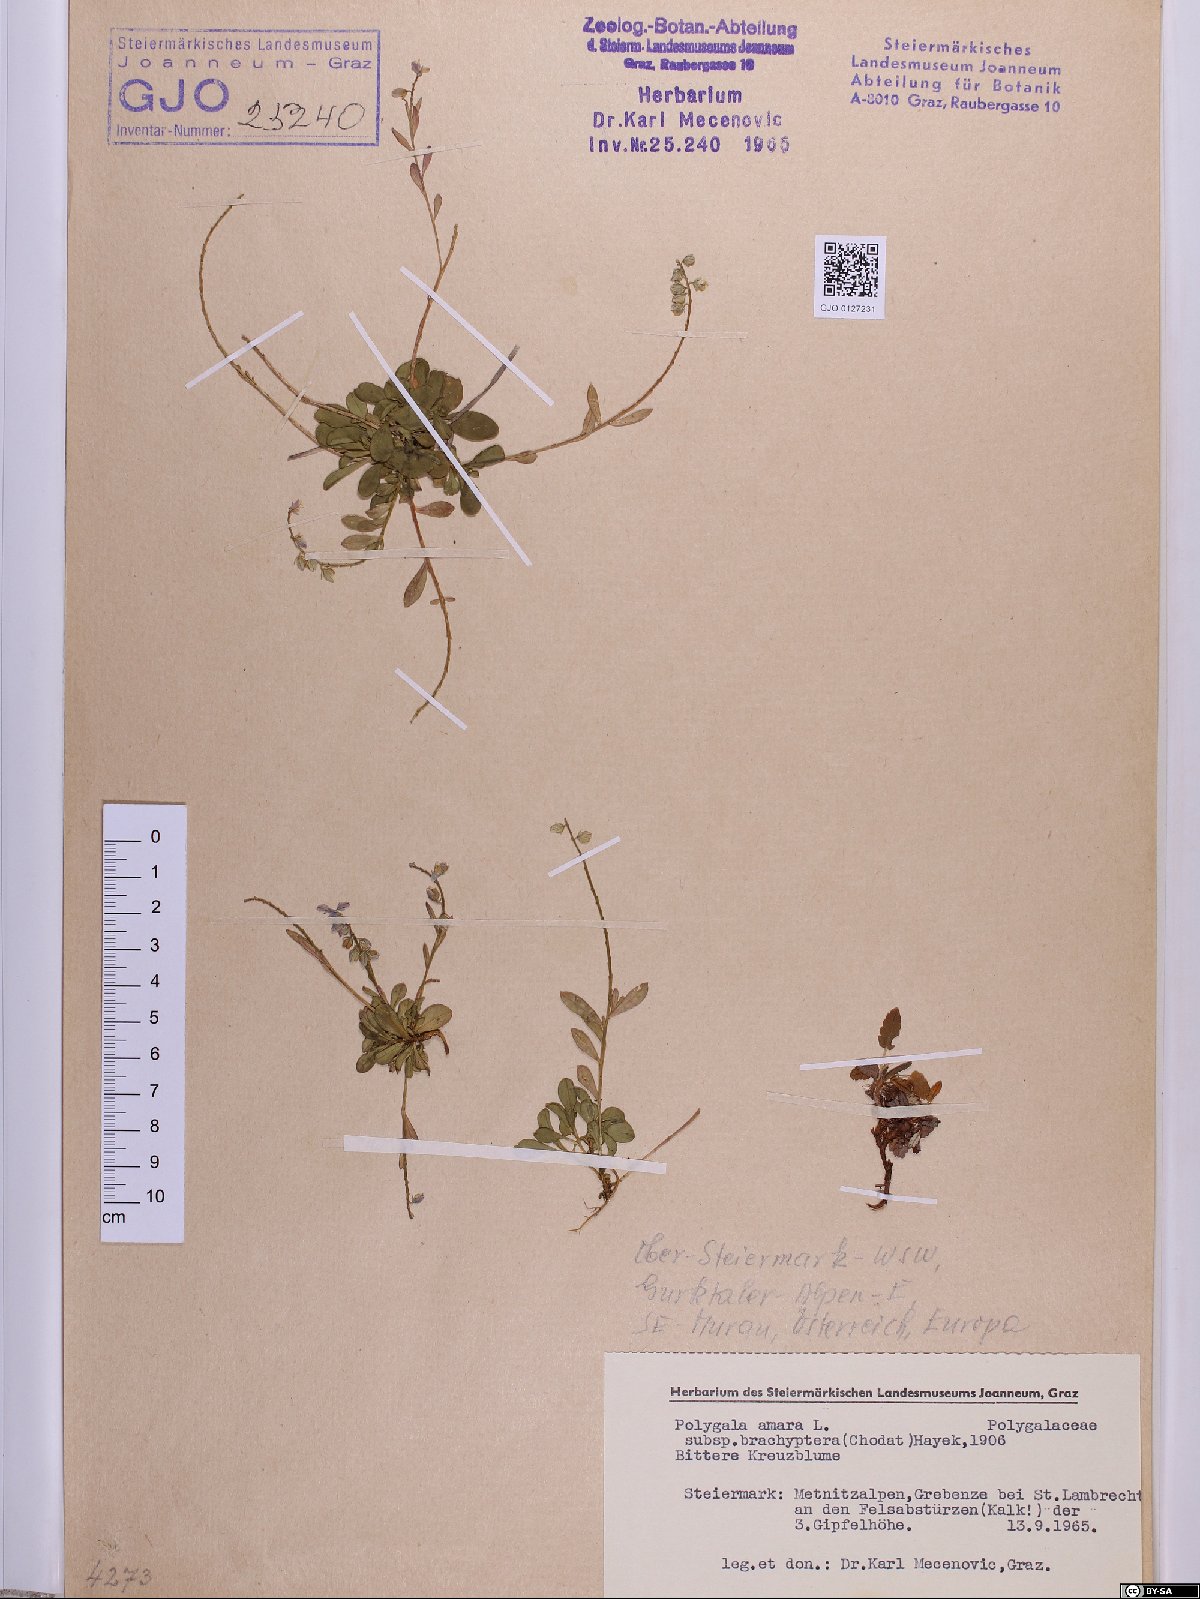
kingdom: Plantae
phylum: Tracheophyta
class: Magnoliopsida
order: Fabales
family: Polygalaceae
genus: Polygala
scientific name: Polygala amara
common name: Milkwort
